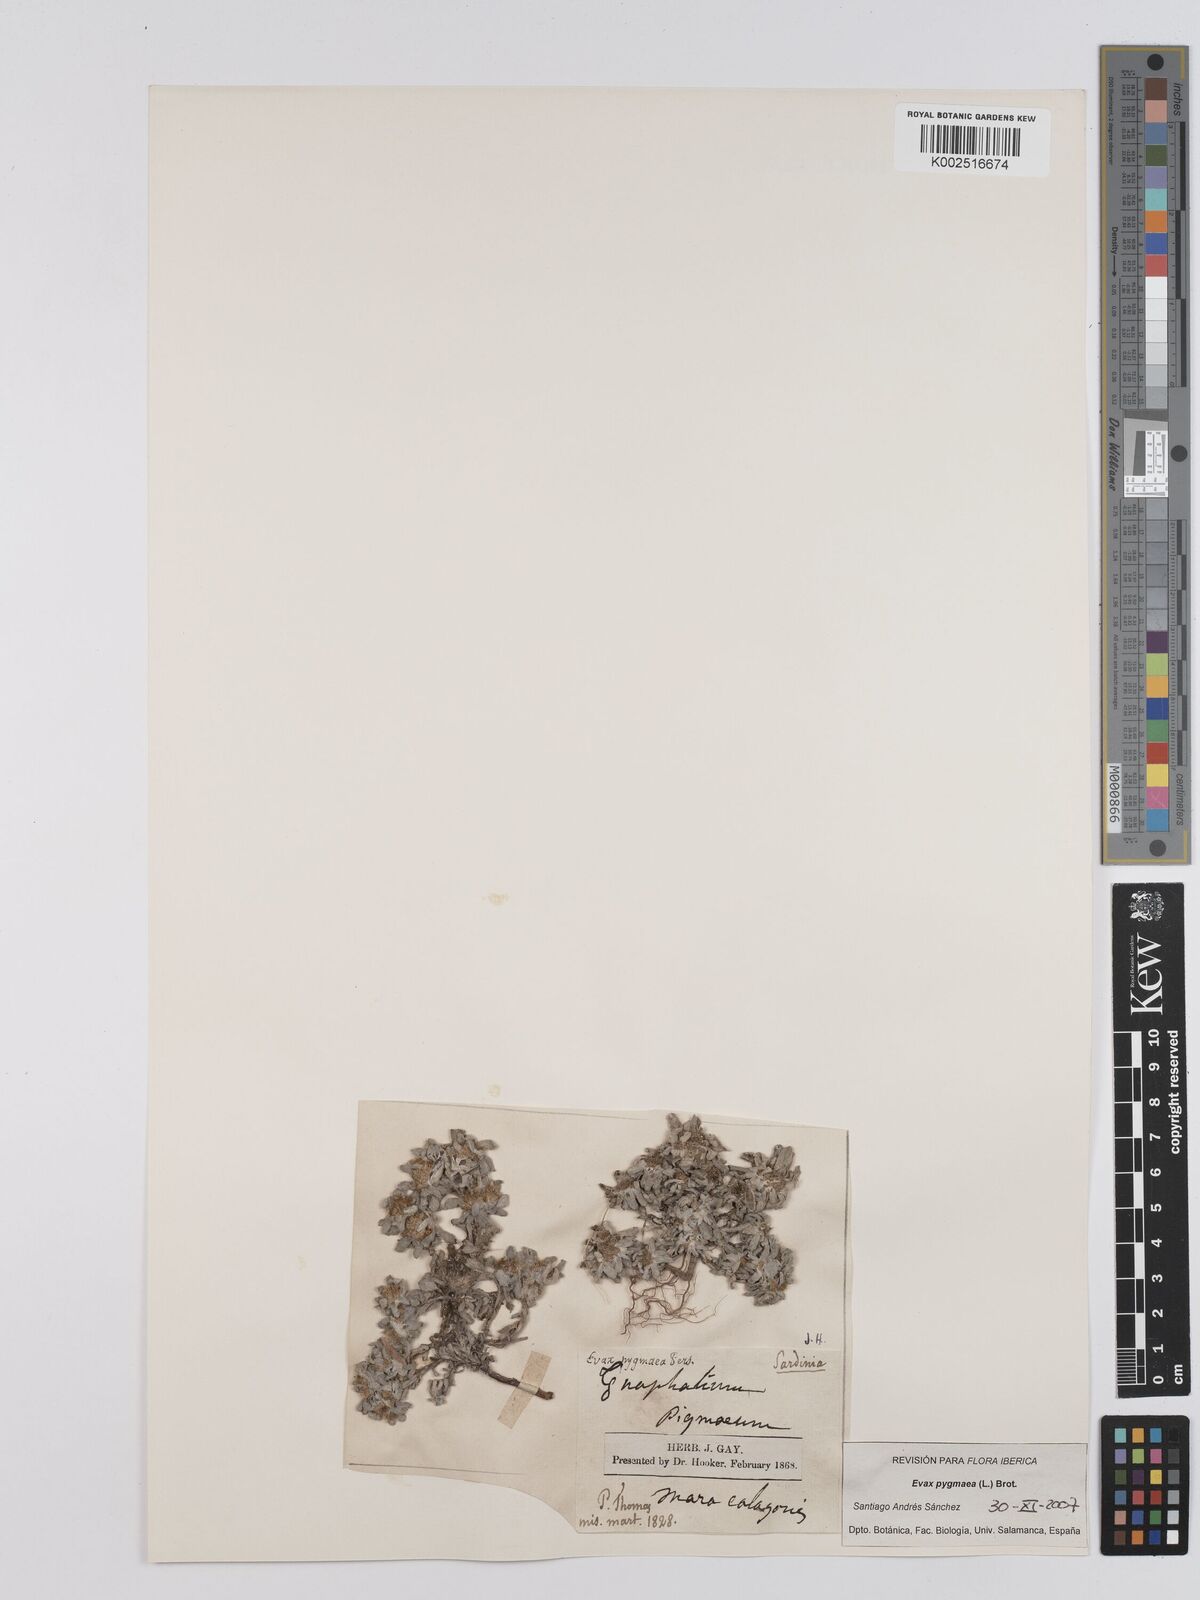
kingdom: Plantae
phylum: Tracheophyta
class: Magnoliopsida
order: Asterales
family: Asteraceae
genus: Filago
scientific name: Filago pygmaea
